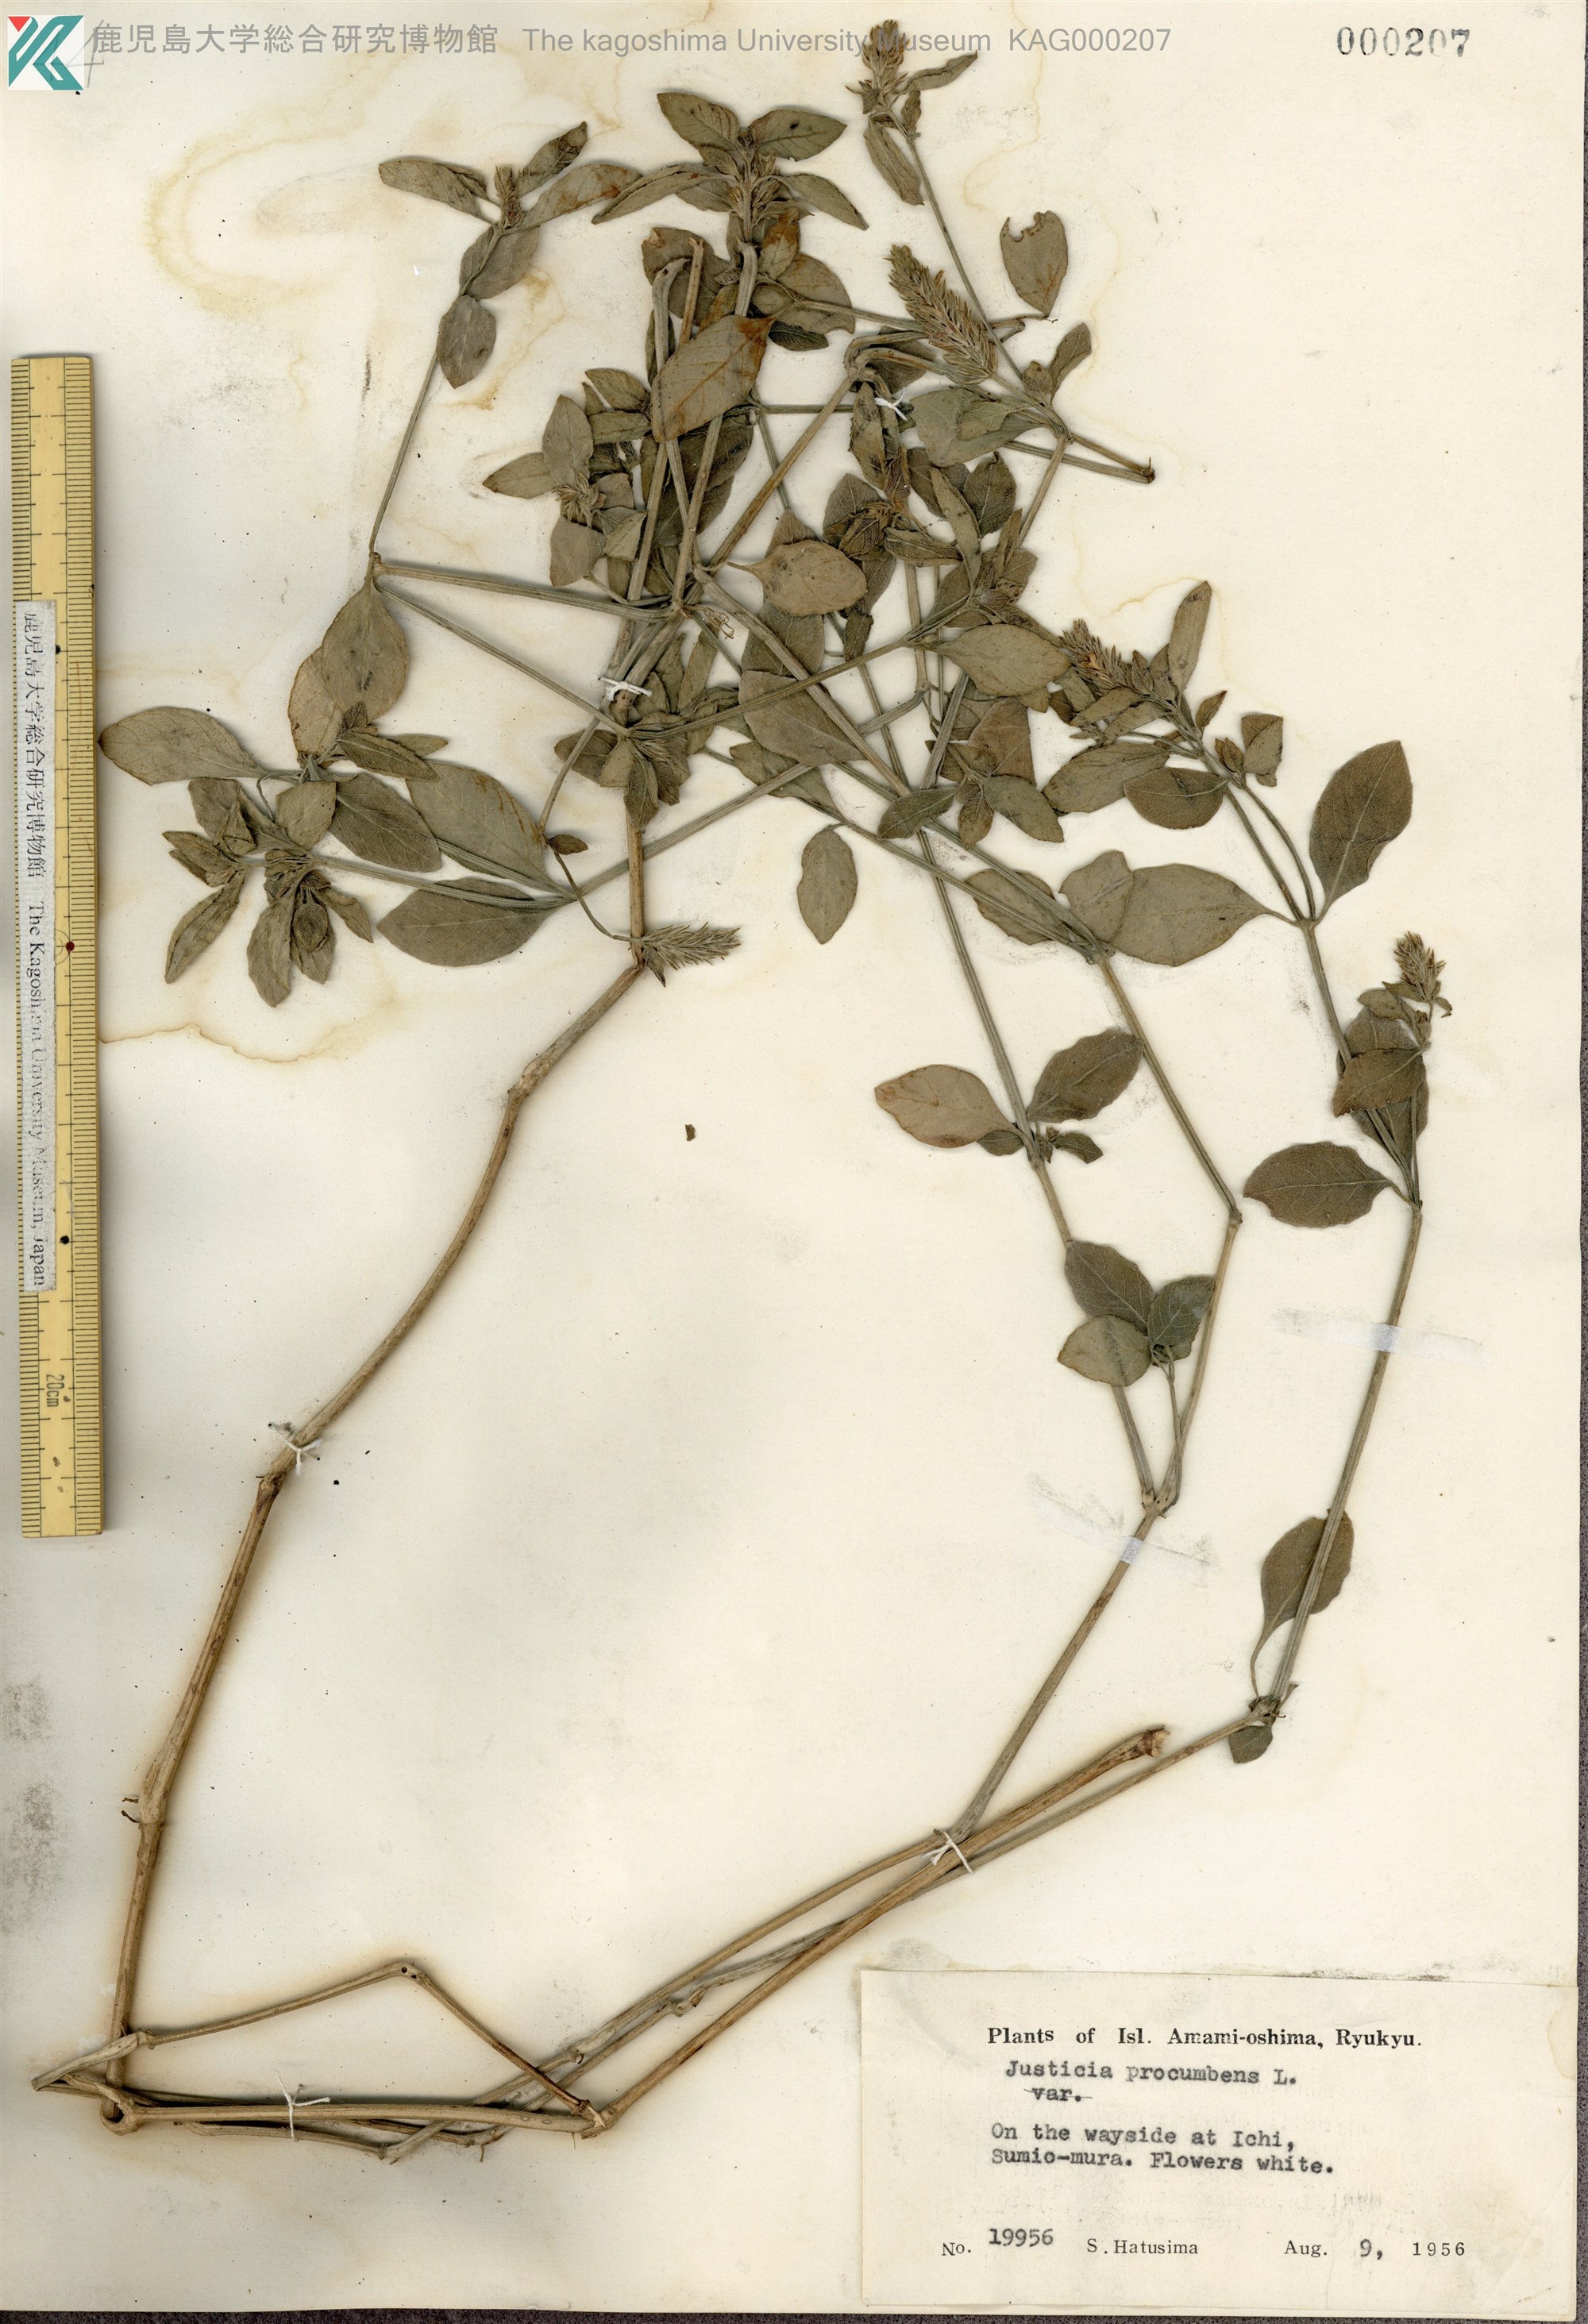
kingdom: Plantae
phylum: Tracheophyta
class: Magnoliopsida
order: Lamiales
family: Acanthaceae
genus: Rostellularia
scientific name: Rostellularia procumbens
